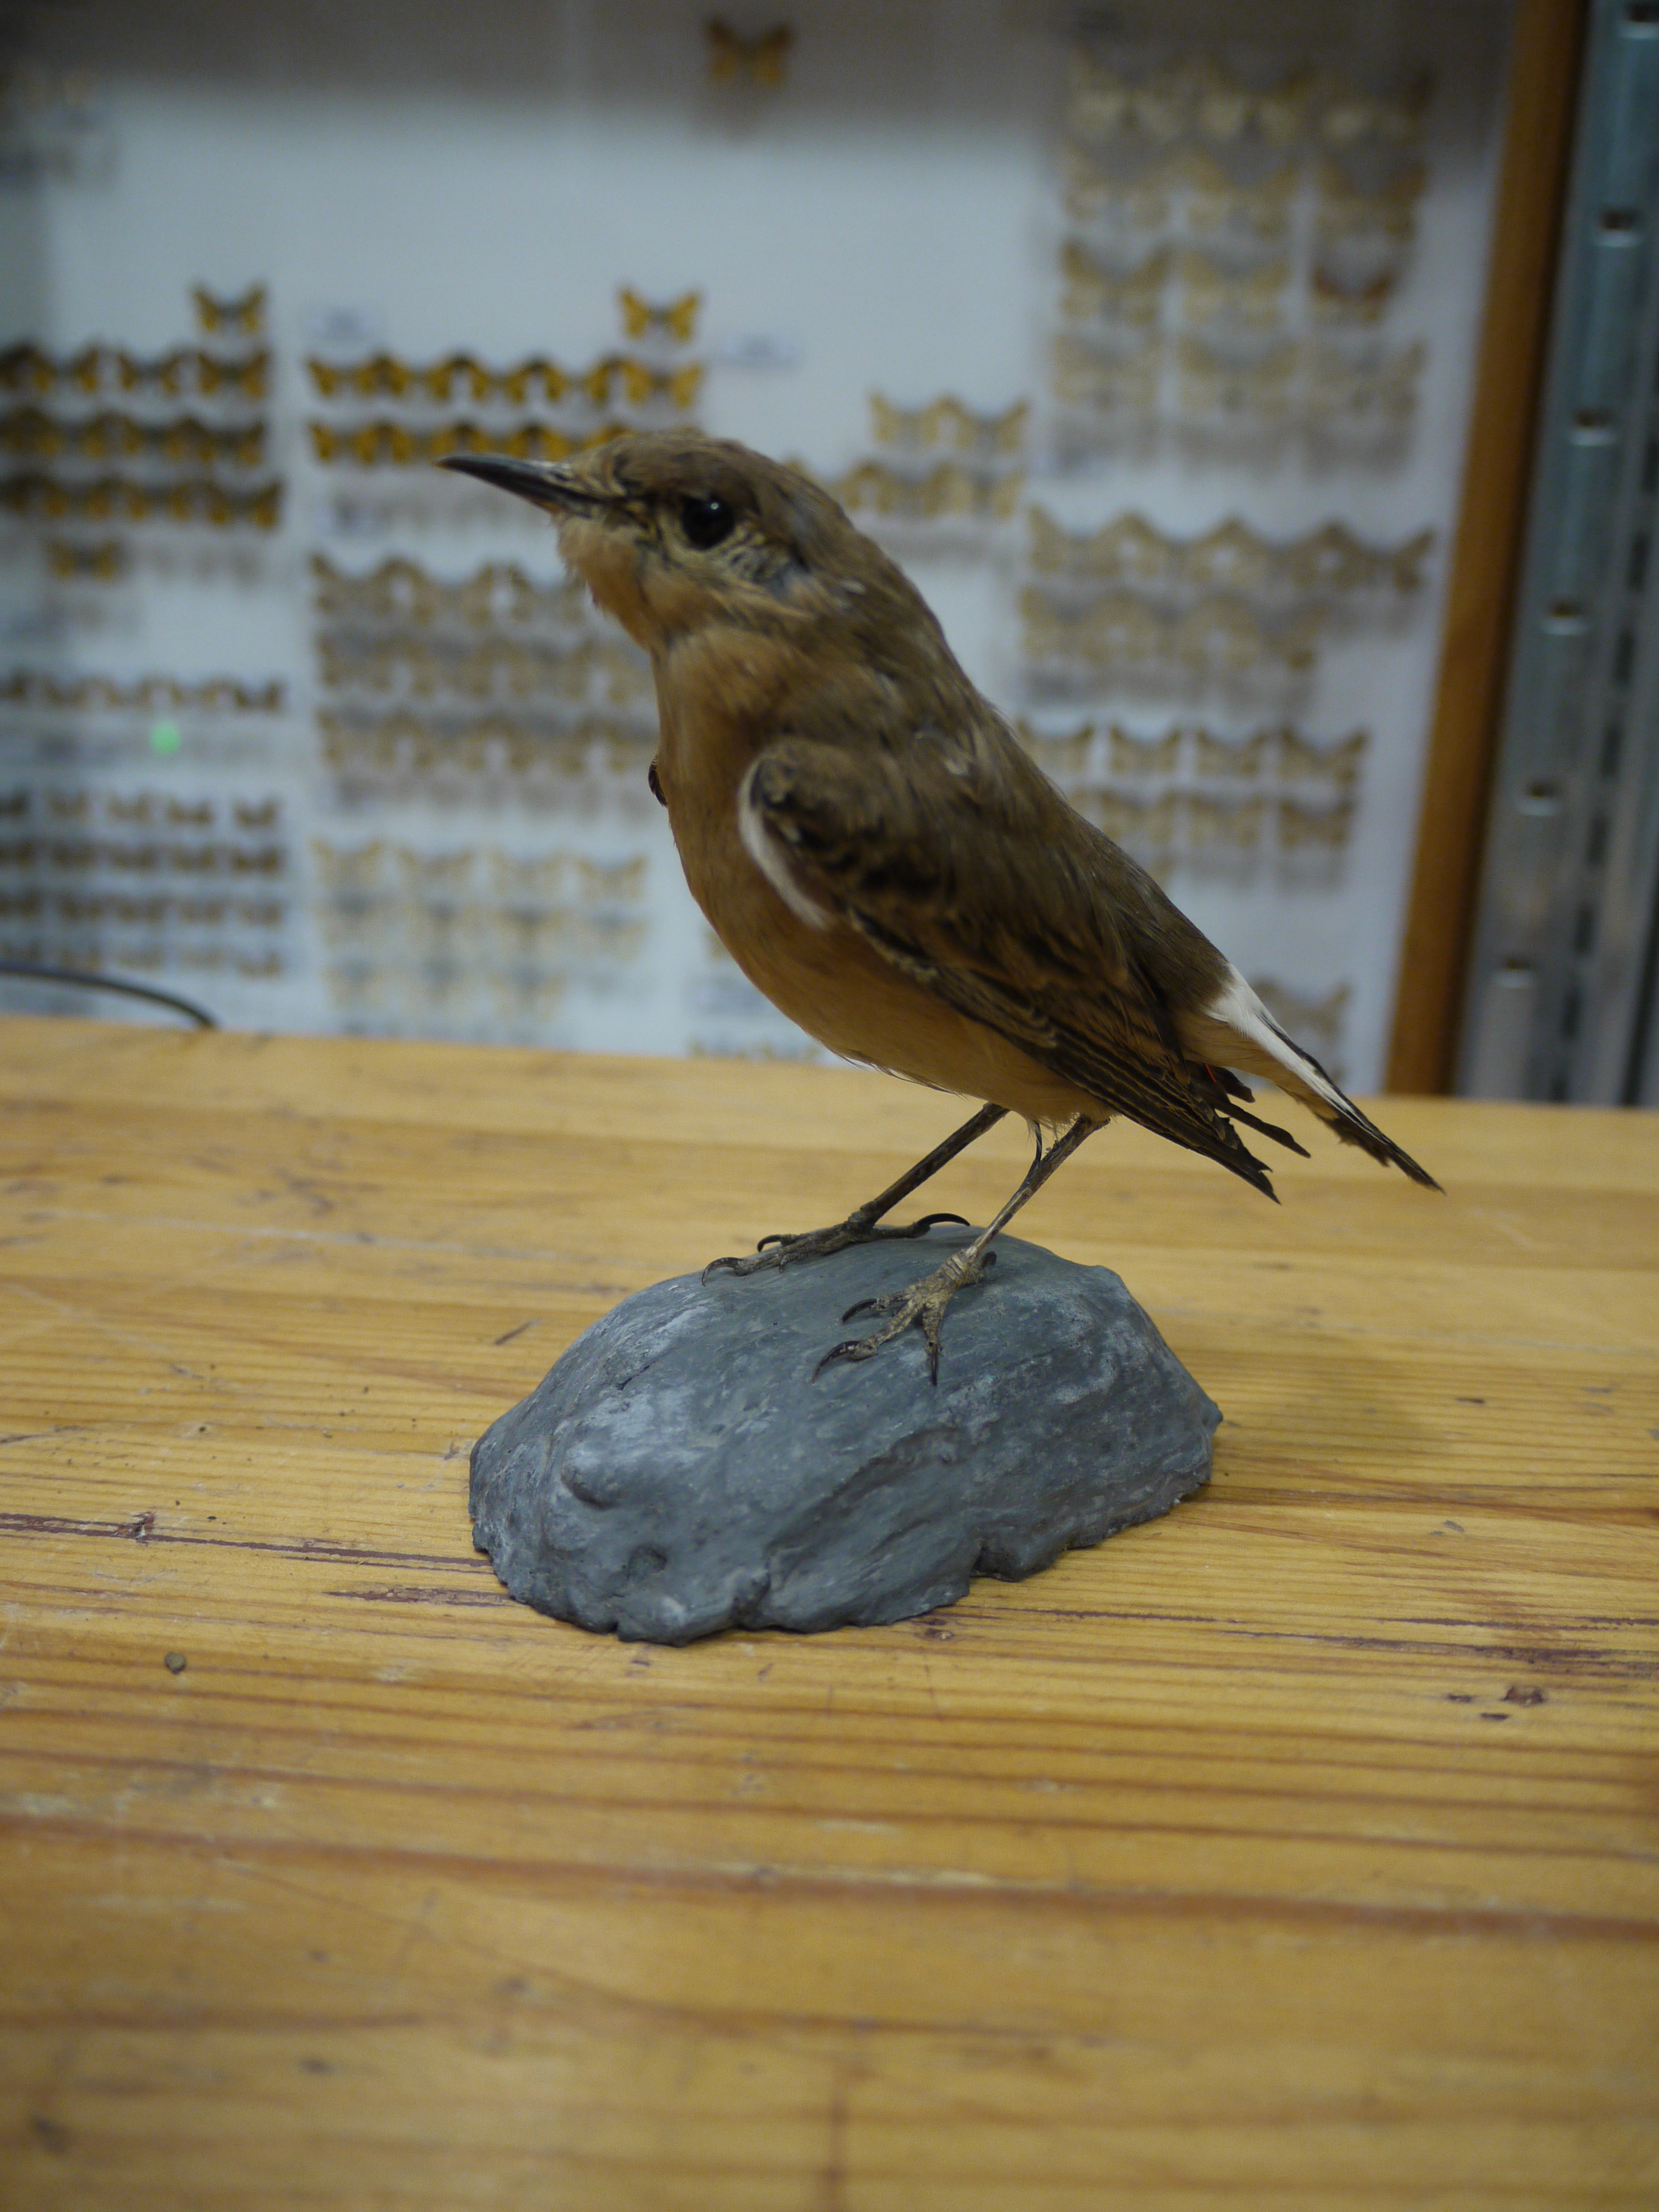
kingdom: Animalia
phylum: Chordata
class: Aves
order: Passeriformes
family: Muscicapidae
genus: Oenanthe
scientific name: Oenanthe oenanthe
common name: Northern wheatear
